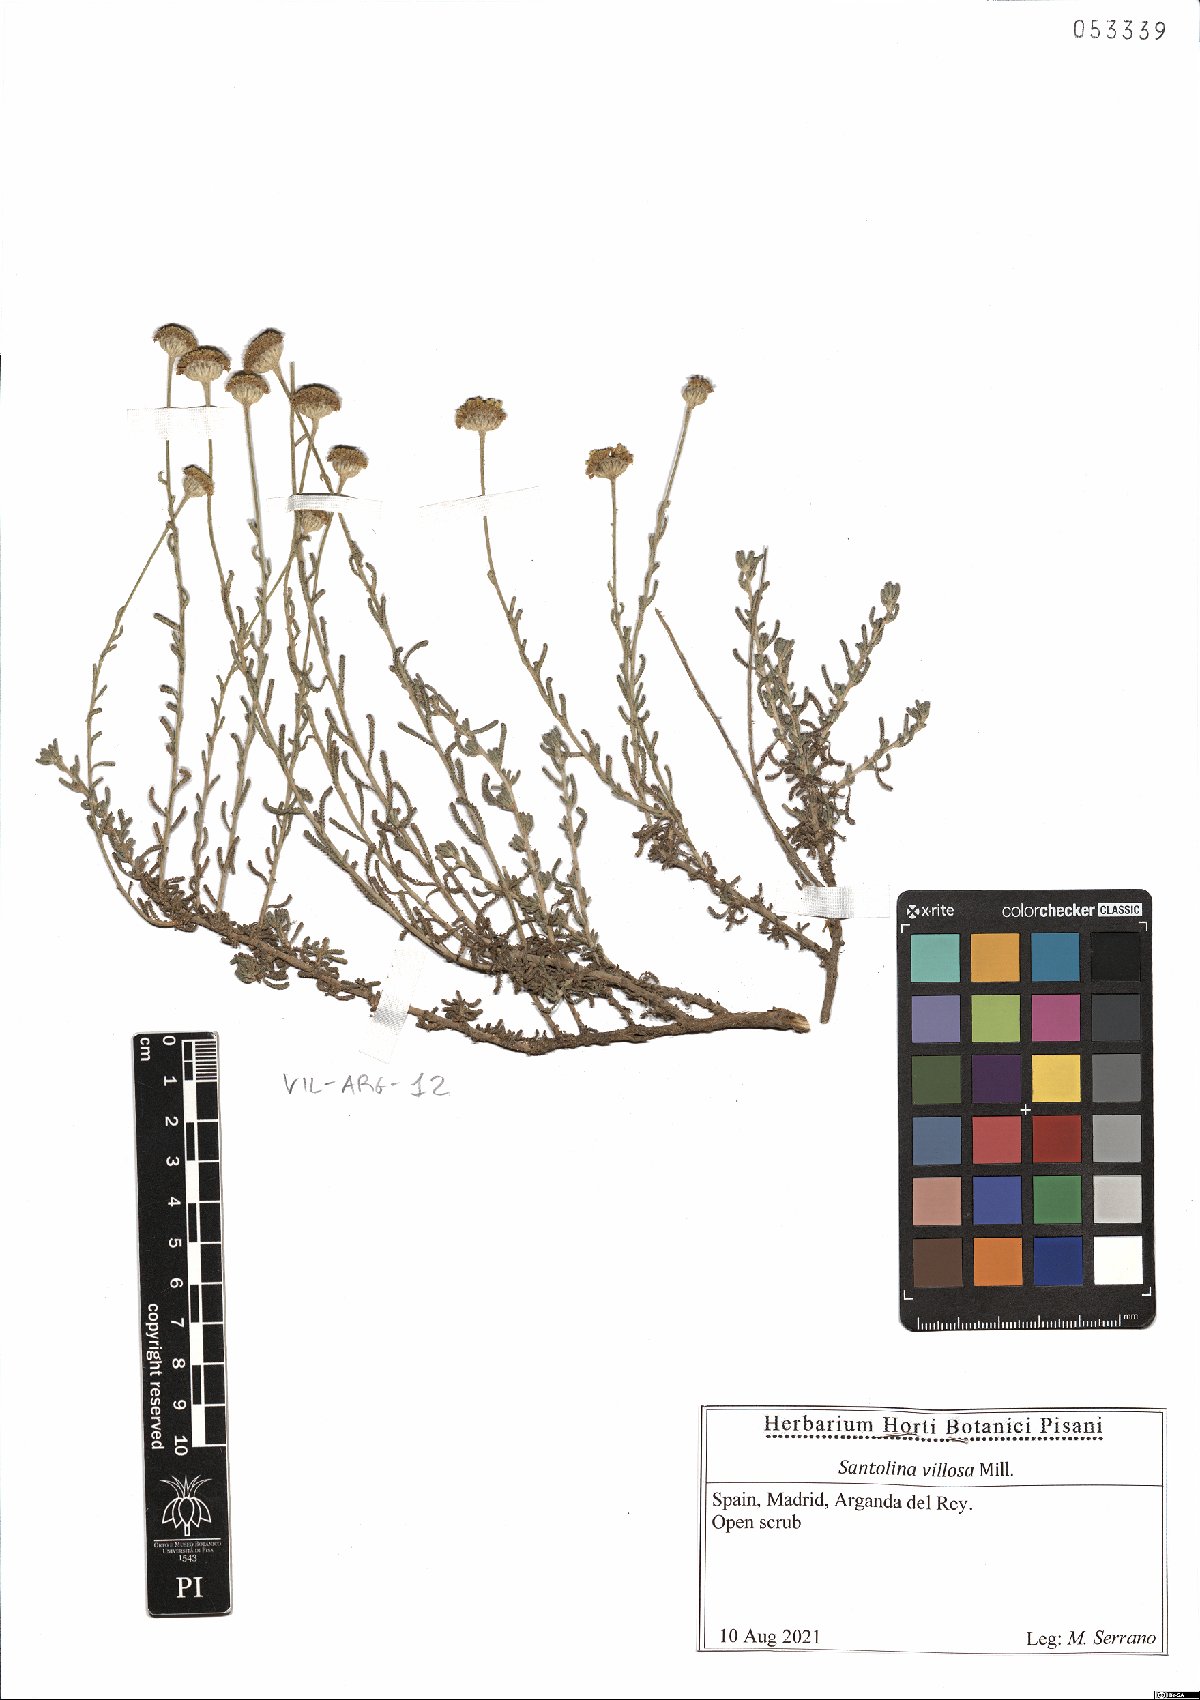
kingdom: Plantae
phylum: Tracheophyta
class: Magnoliopsida
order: Asterales
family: Asteraceae
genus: Santolina
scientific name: Santolina chamaecyparissus
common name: Lavender-cotton
